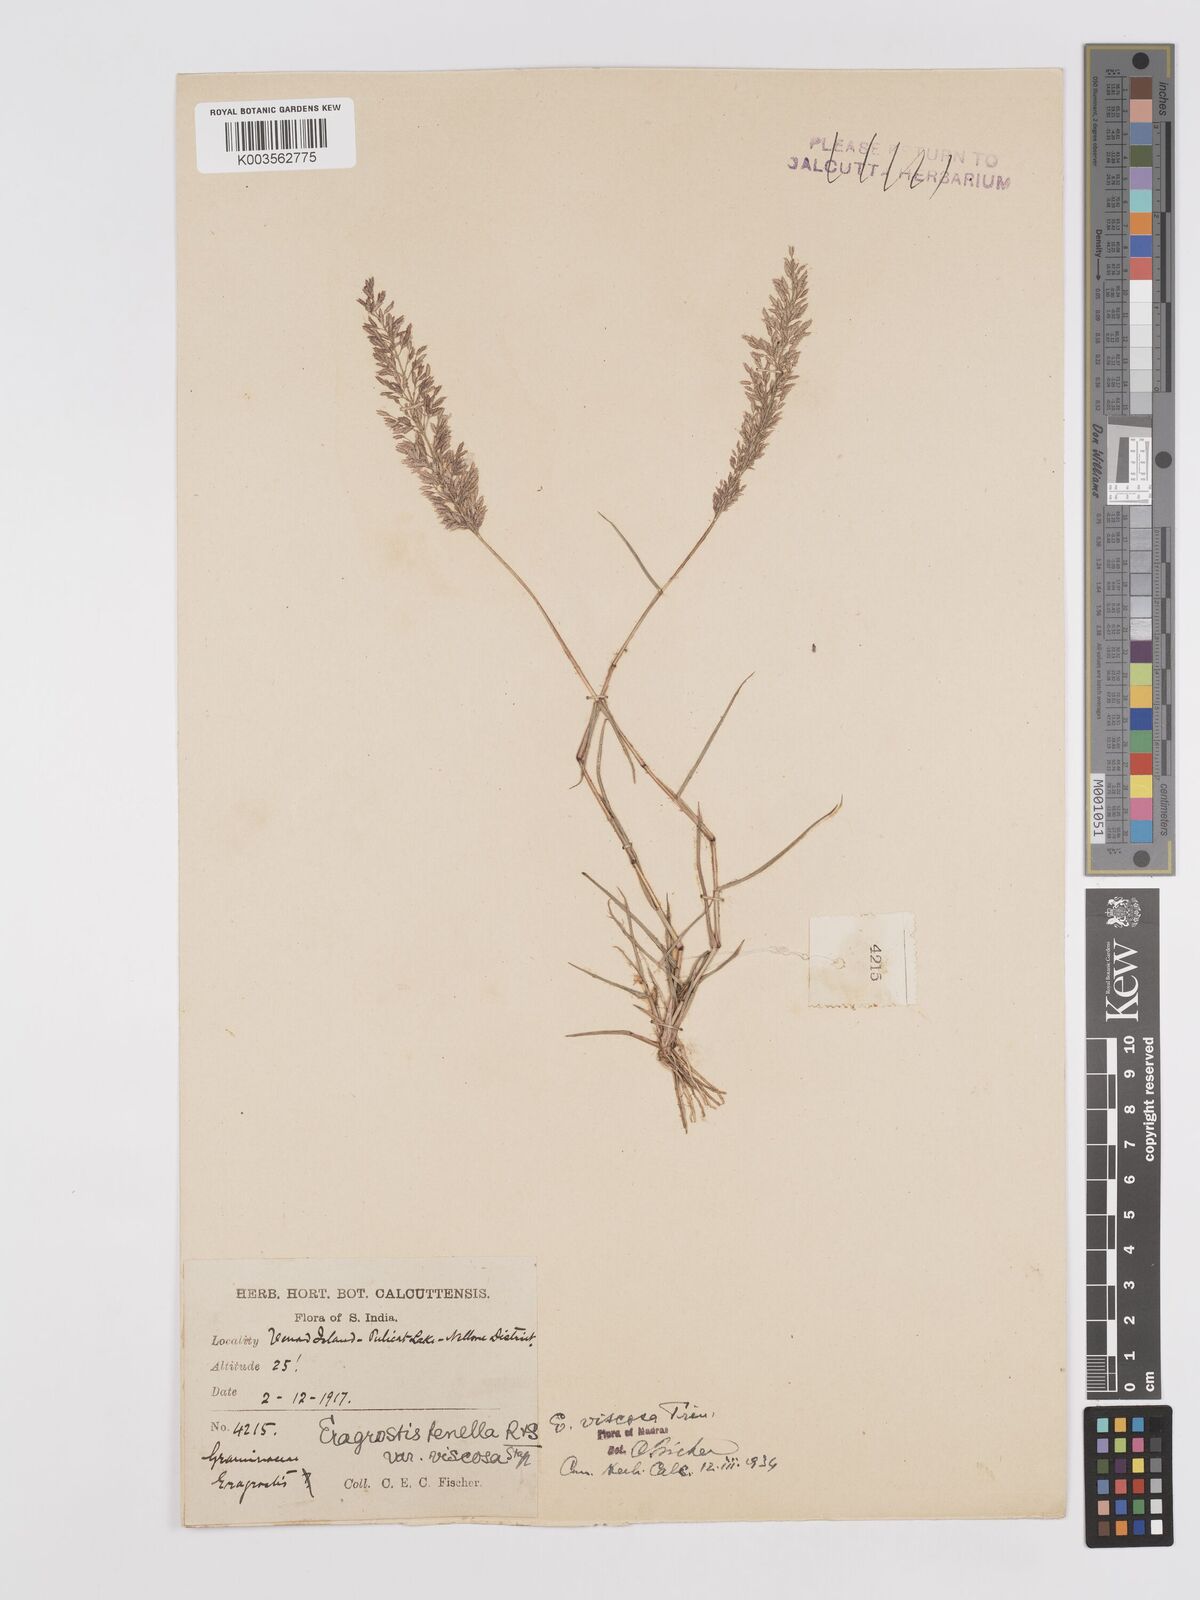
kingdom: Plantae
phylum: Tracheophyta
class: Liliopsida
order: Poales
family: Poaceae
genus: Eragrostis
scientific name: Eragrostis viscosa
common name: Sticky love grass
